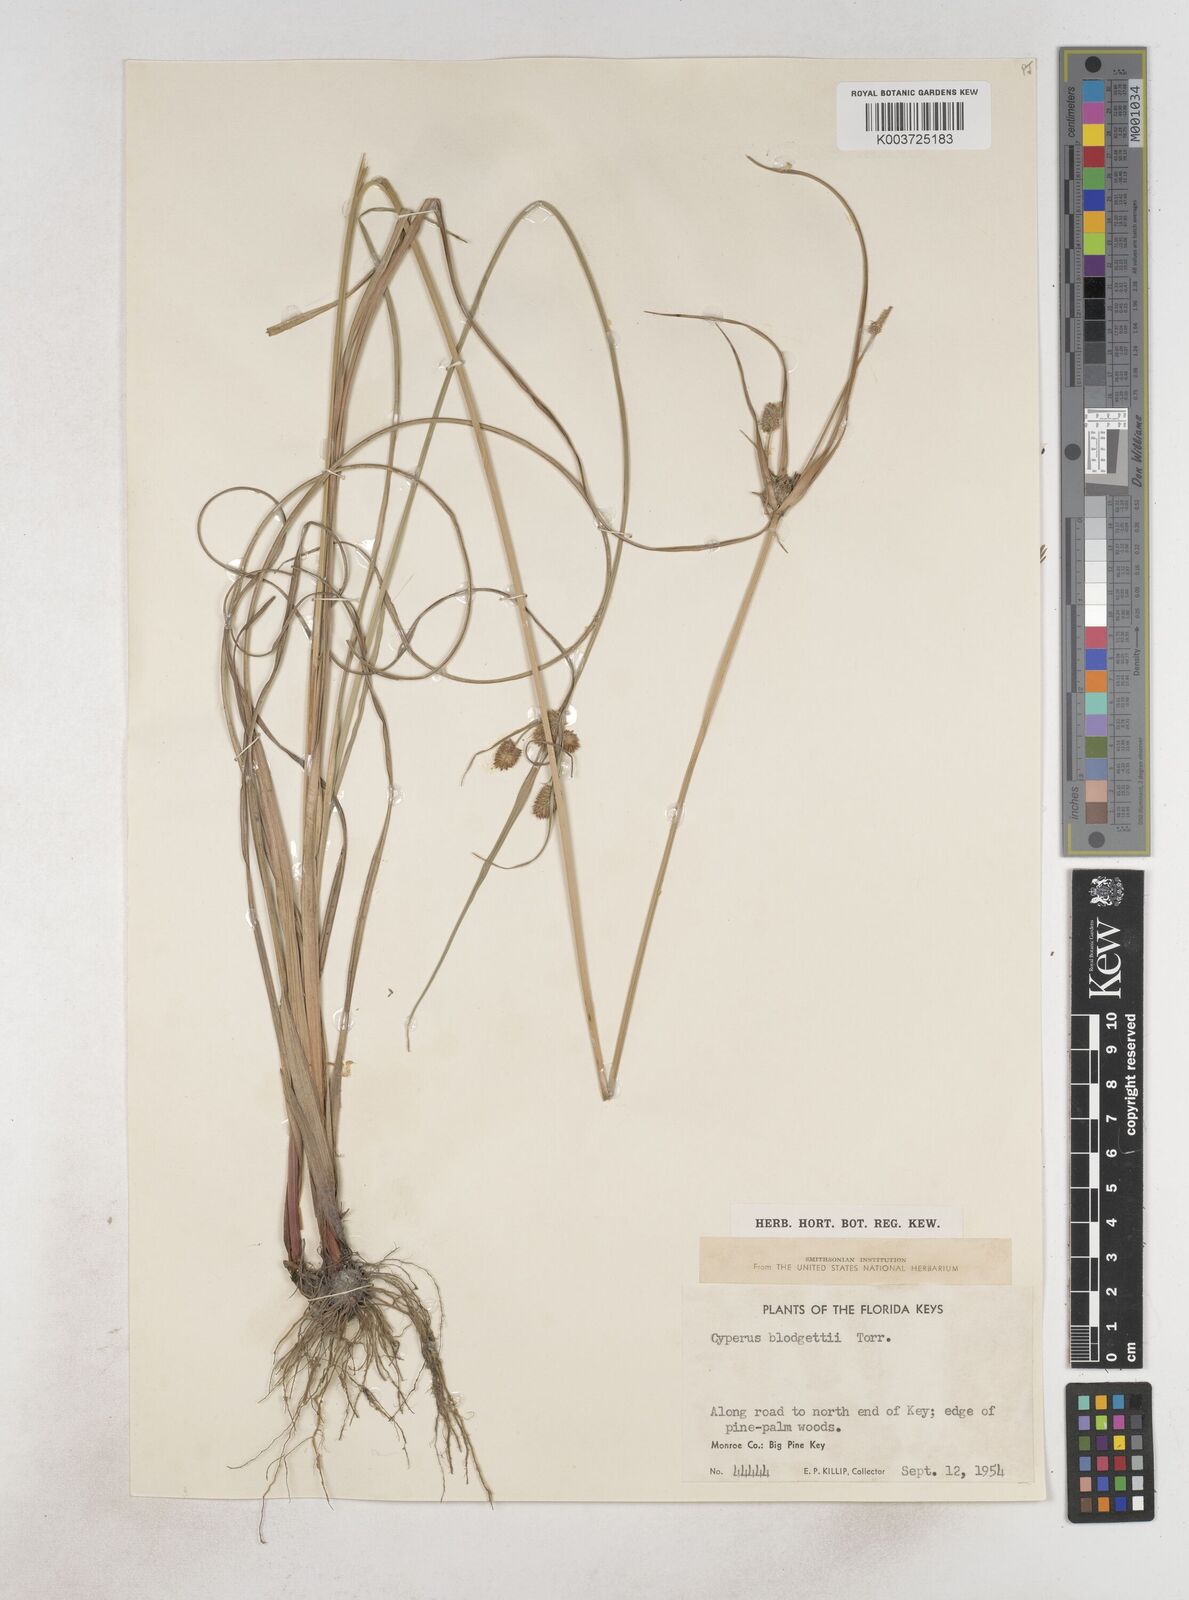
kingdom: Plantae
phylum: Tracheophyta
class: Liliopsida
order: Poales
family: Cyperaceae
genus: Cyperus
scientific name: Cyperus retrorsus
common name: Pinebarren flat sedge
